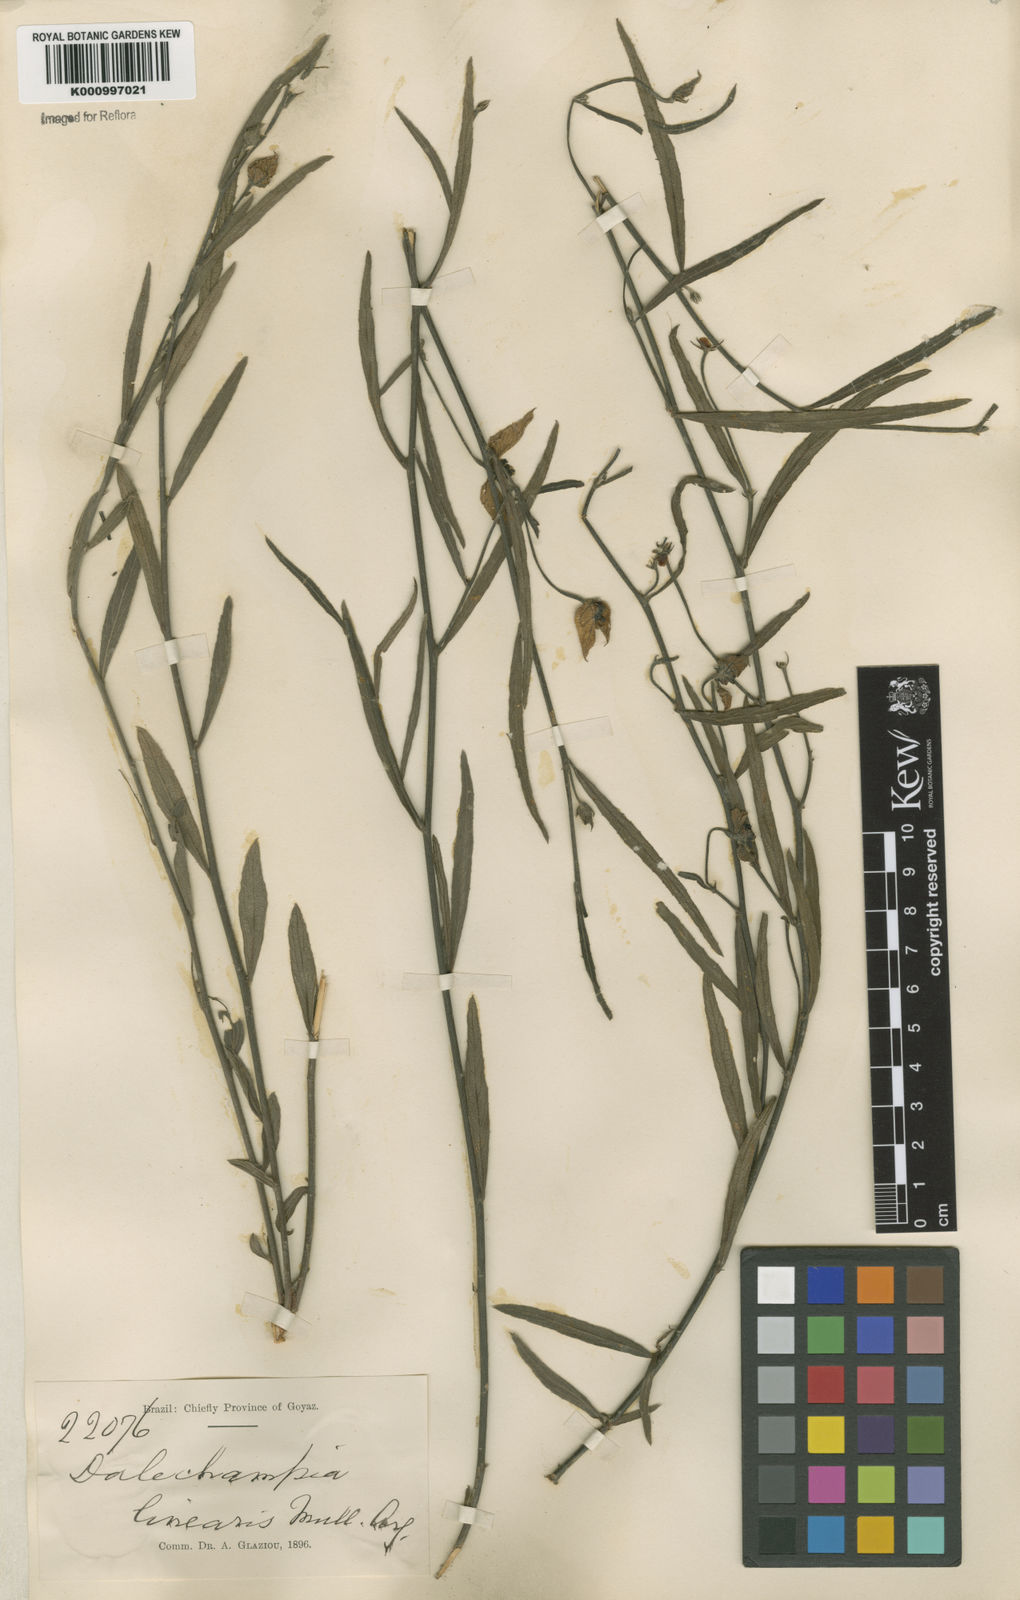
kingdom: Plantae
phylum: Tracheophyta
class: Magnoliopsida
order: Malpighiales
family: Euphorbiaceae
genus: Dalechampia
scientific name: Dalechampia caperonioides
